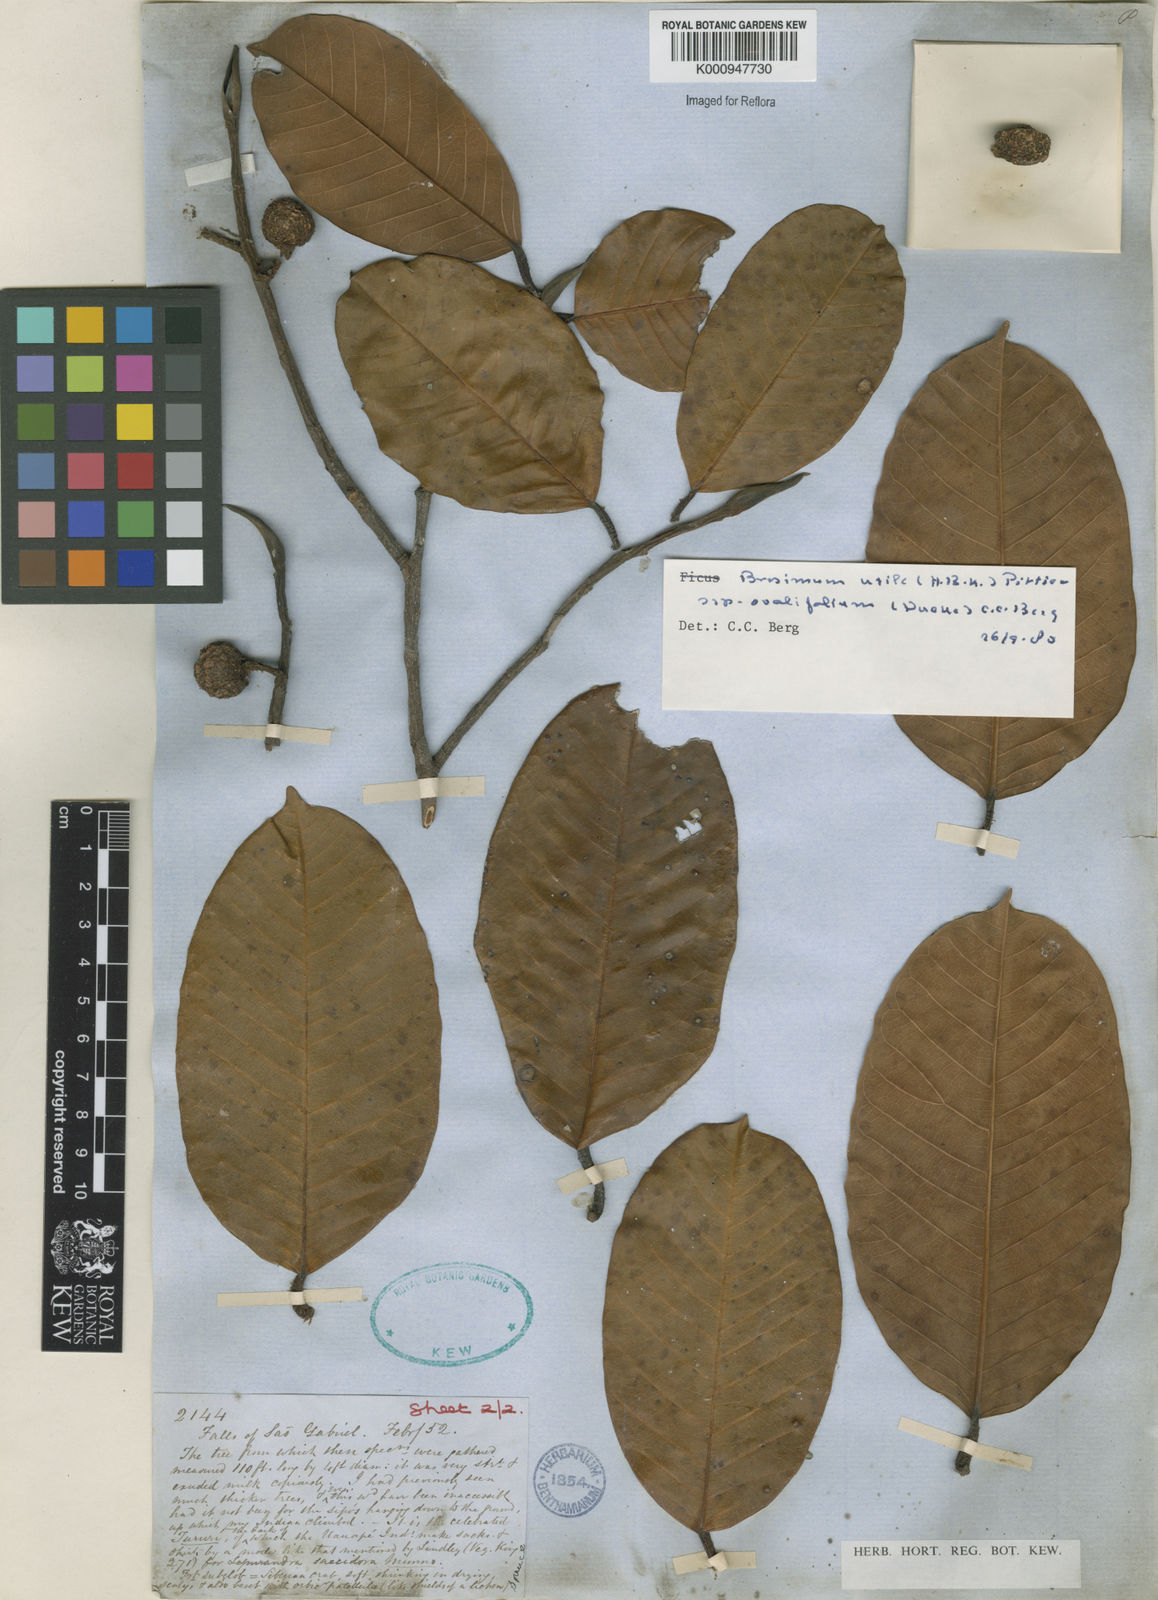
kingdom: Plantae
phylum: Tracheophyta
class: Magnoliopsida
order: Rosales
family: Moraceae
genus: Brosimum
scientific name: Brosimum utile
